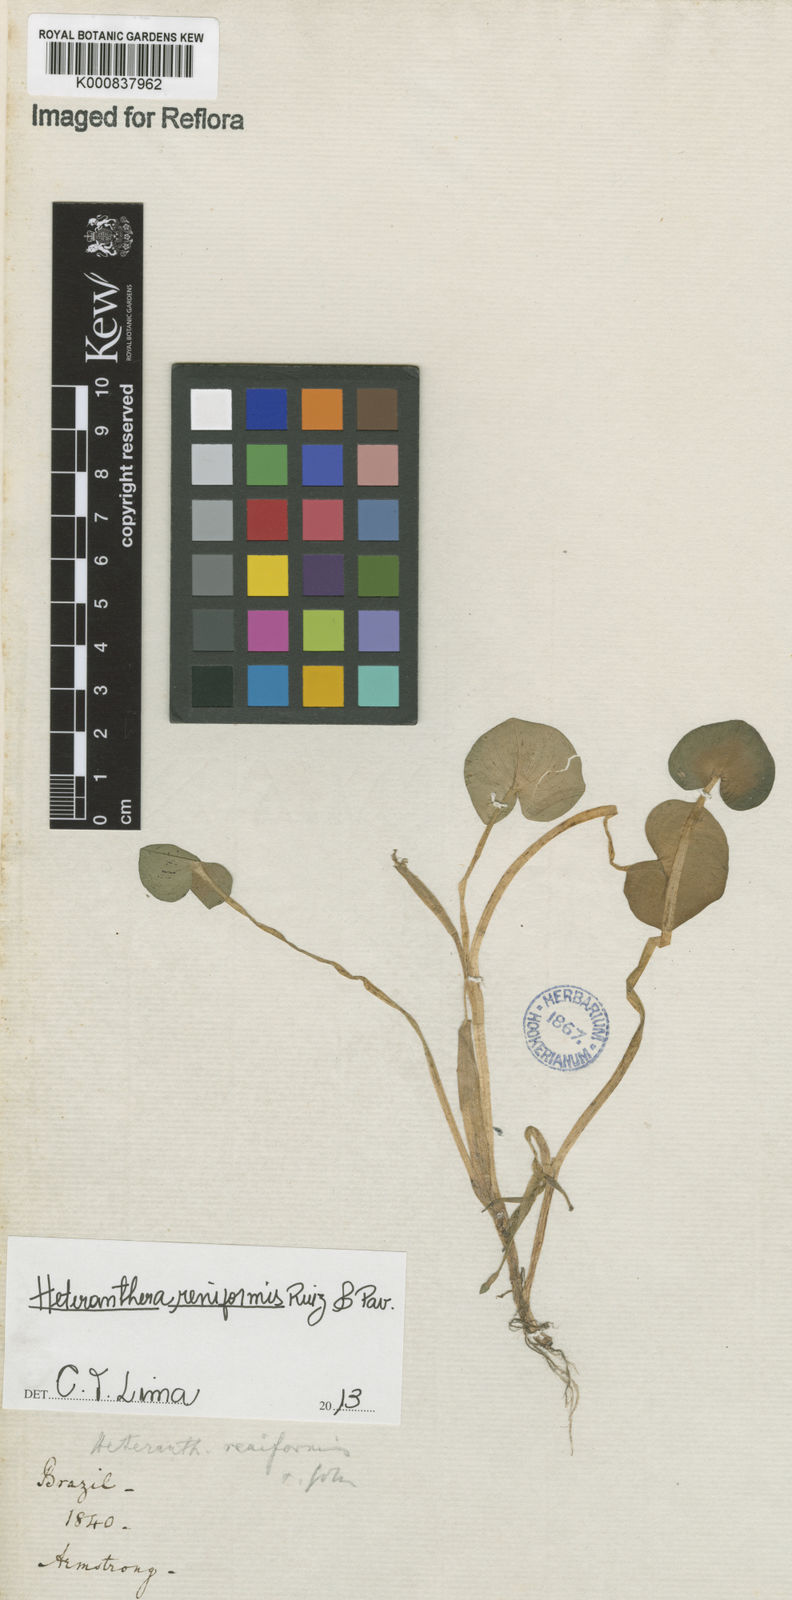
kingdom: Plantae
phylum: Tracheophyta
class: Liliopsida
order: Commelinales
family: Pontederiaceae
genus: Heteranthera
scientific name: Heteranthera reniformis
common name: Kidneyleaf mudplantain
